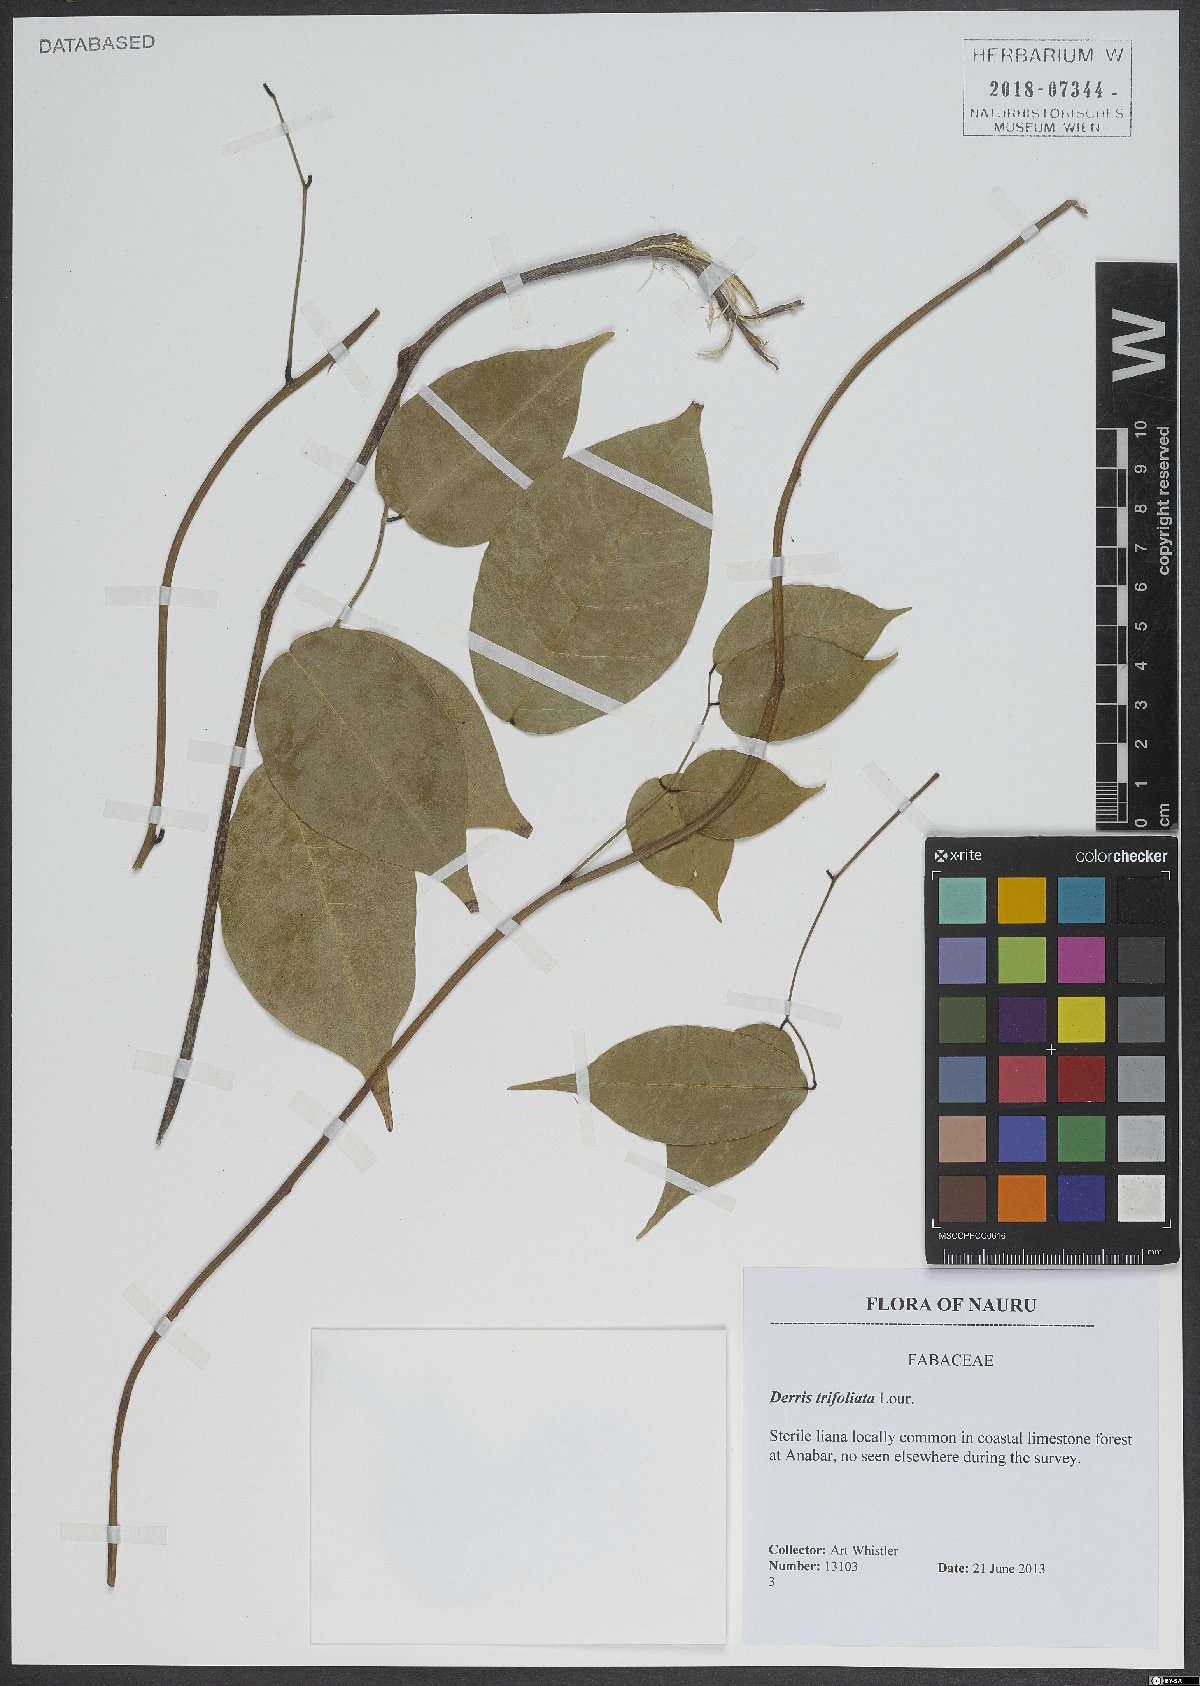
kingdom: Plantae
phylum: Tracheophyta
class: Magnoliopsida
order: Fabales
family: Fabaceae
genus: Derris
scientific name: Derris trifoliata
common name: Three-leaf derris
